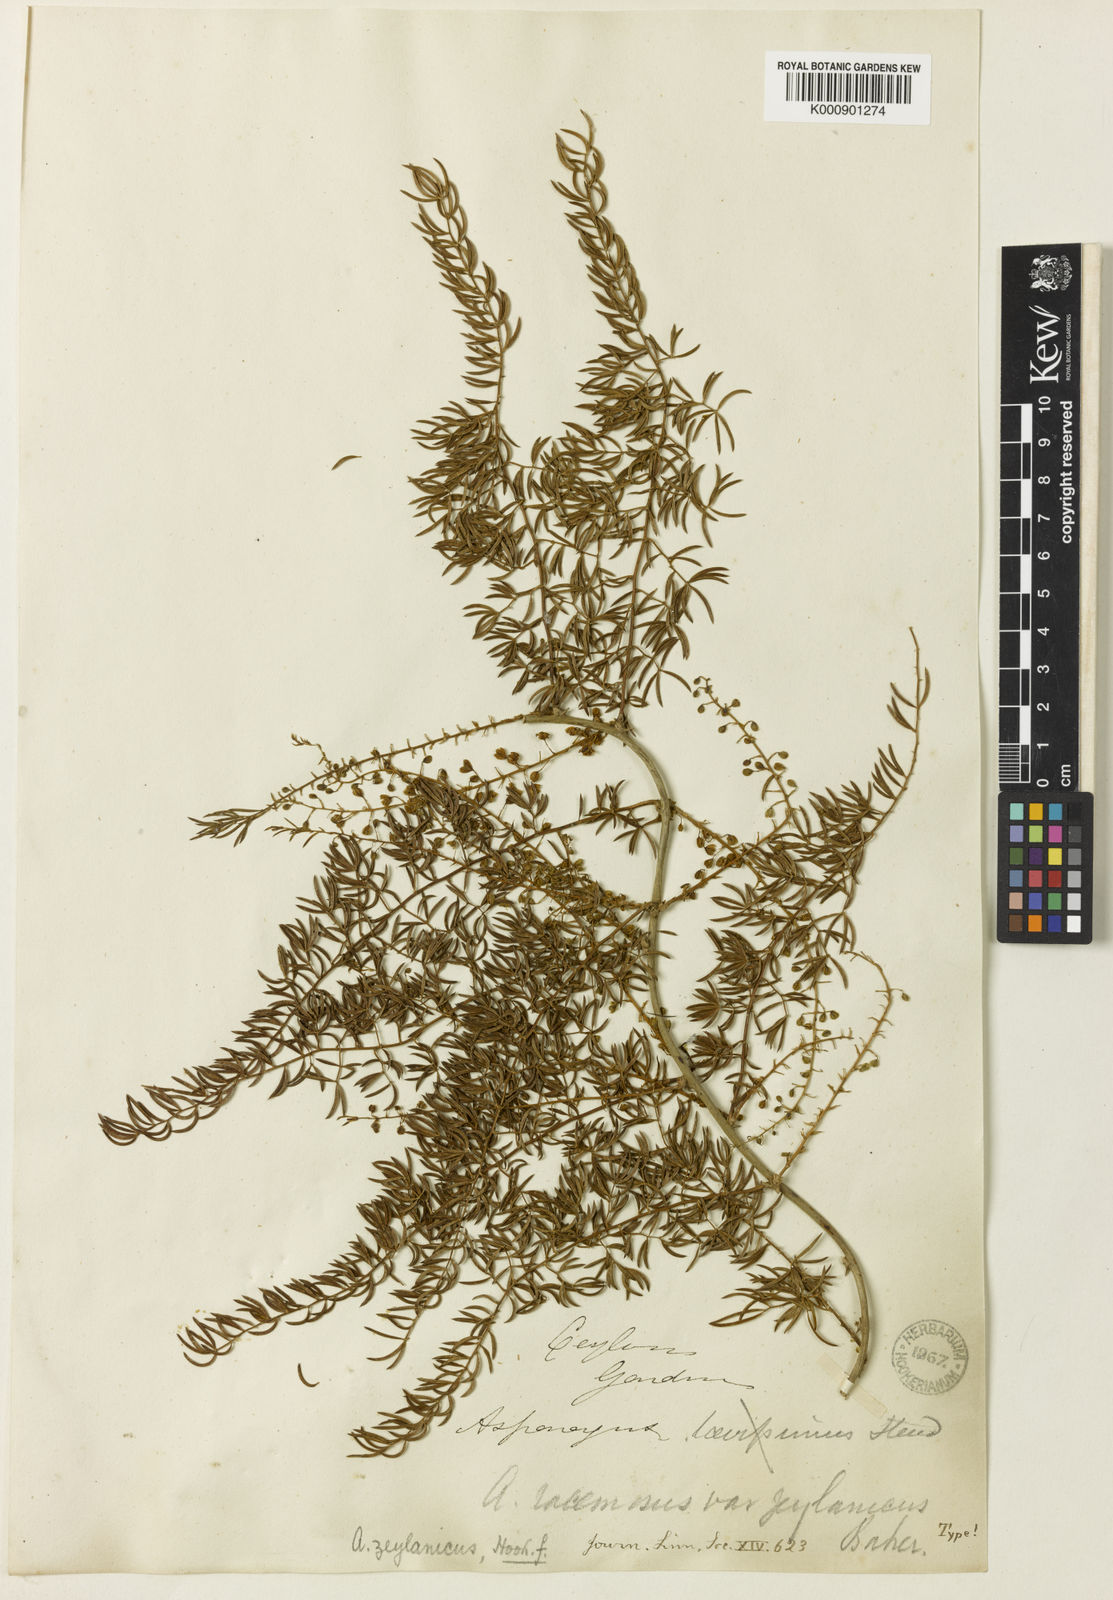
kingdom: Plantae
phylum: Tracheophyta
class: Liliopsida
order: Asparagales
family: Asparagaceae
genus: Asparagus
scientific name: Asparagus racemosus
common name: Asparagus-fern
